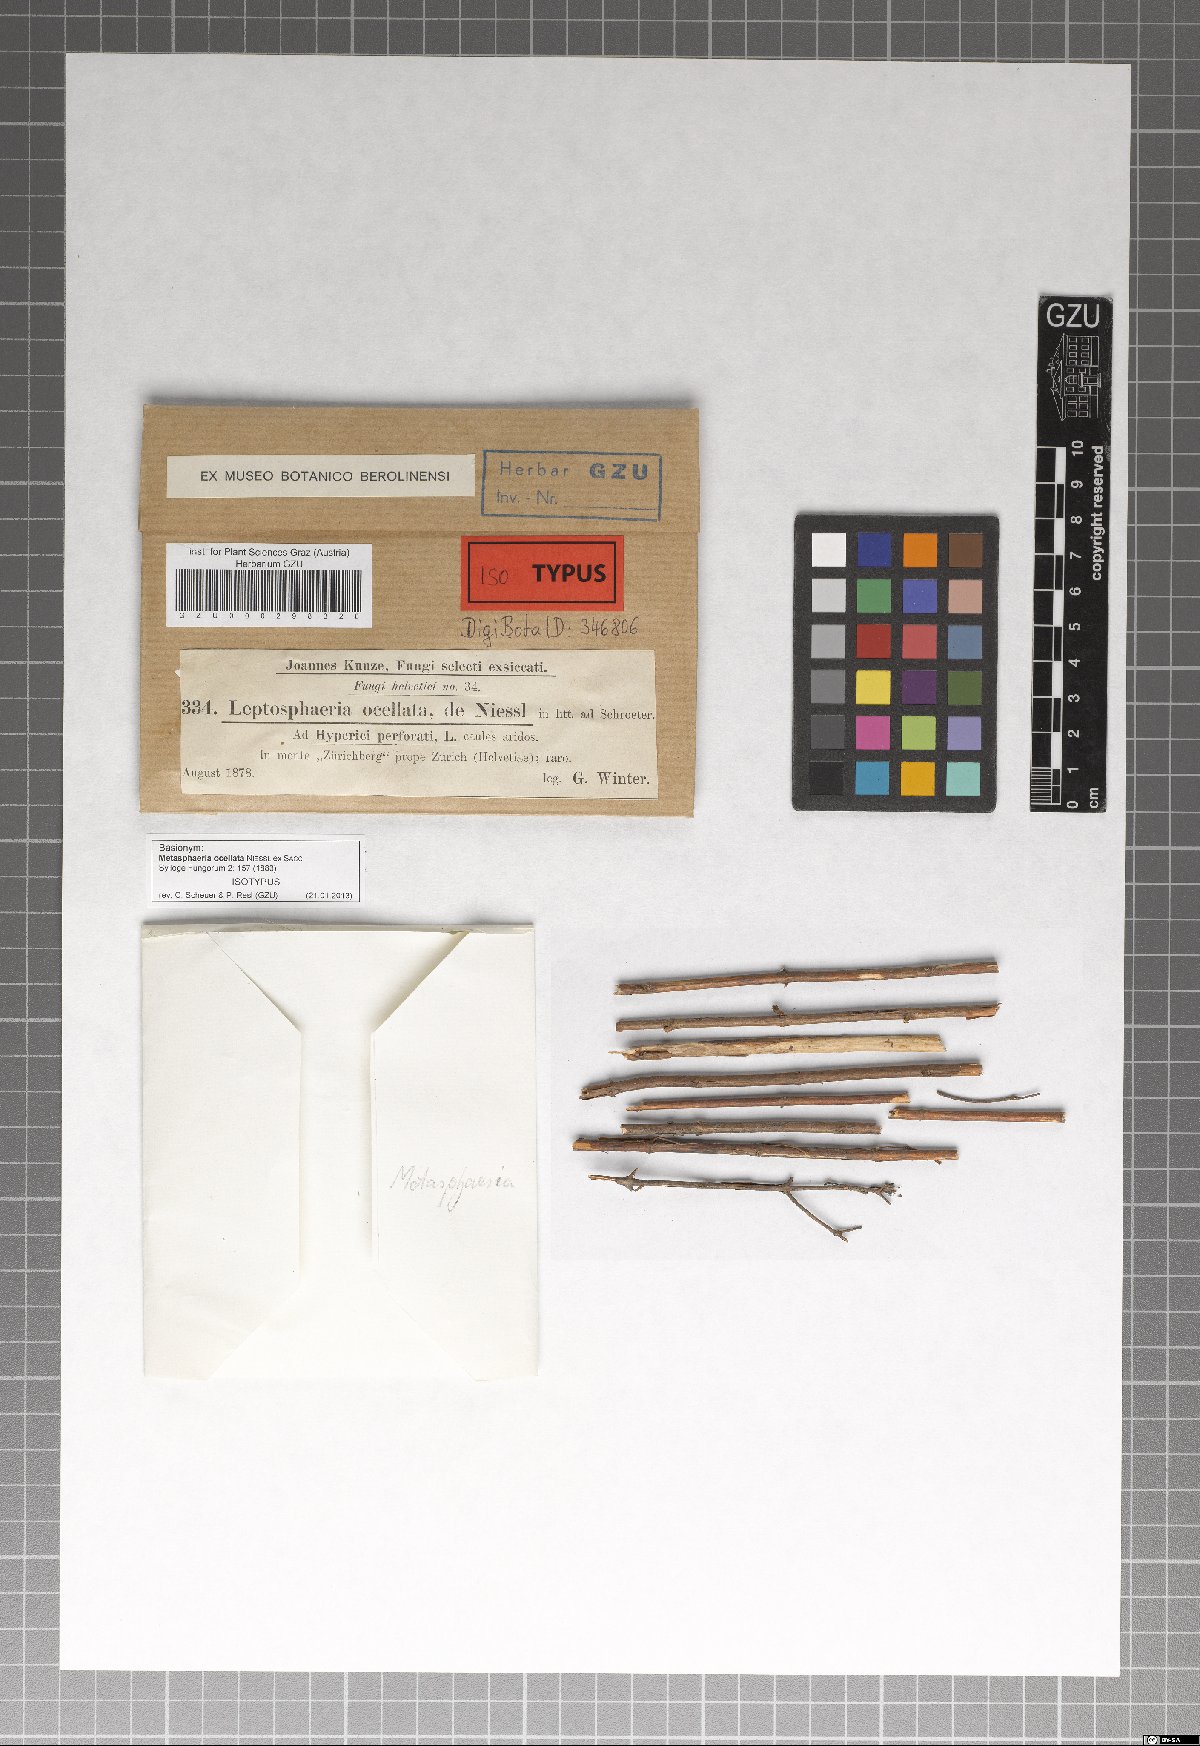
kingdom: Fungi
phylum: Ascomycota
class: Dothideomycetes
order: Pleosporales
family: Lentitheciaceae
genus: Keissleriella
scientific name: Keissleriella ocellata
